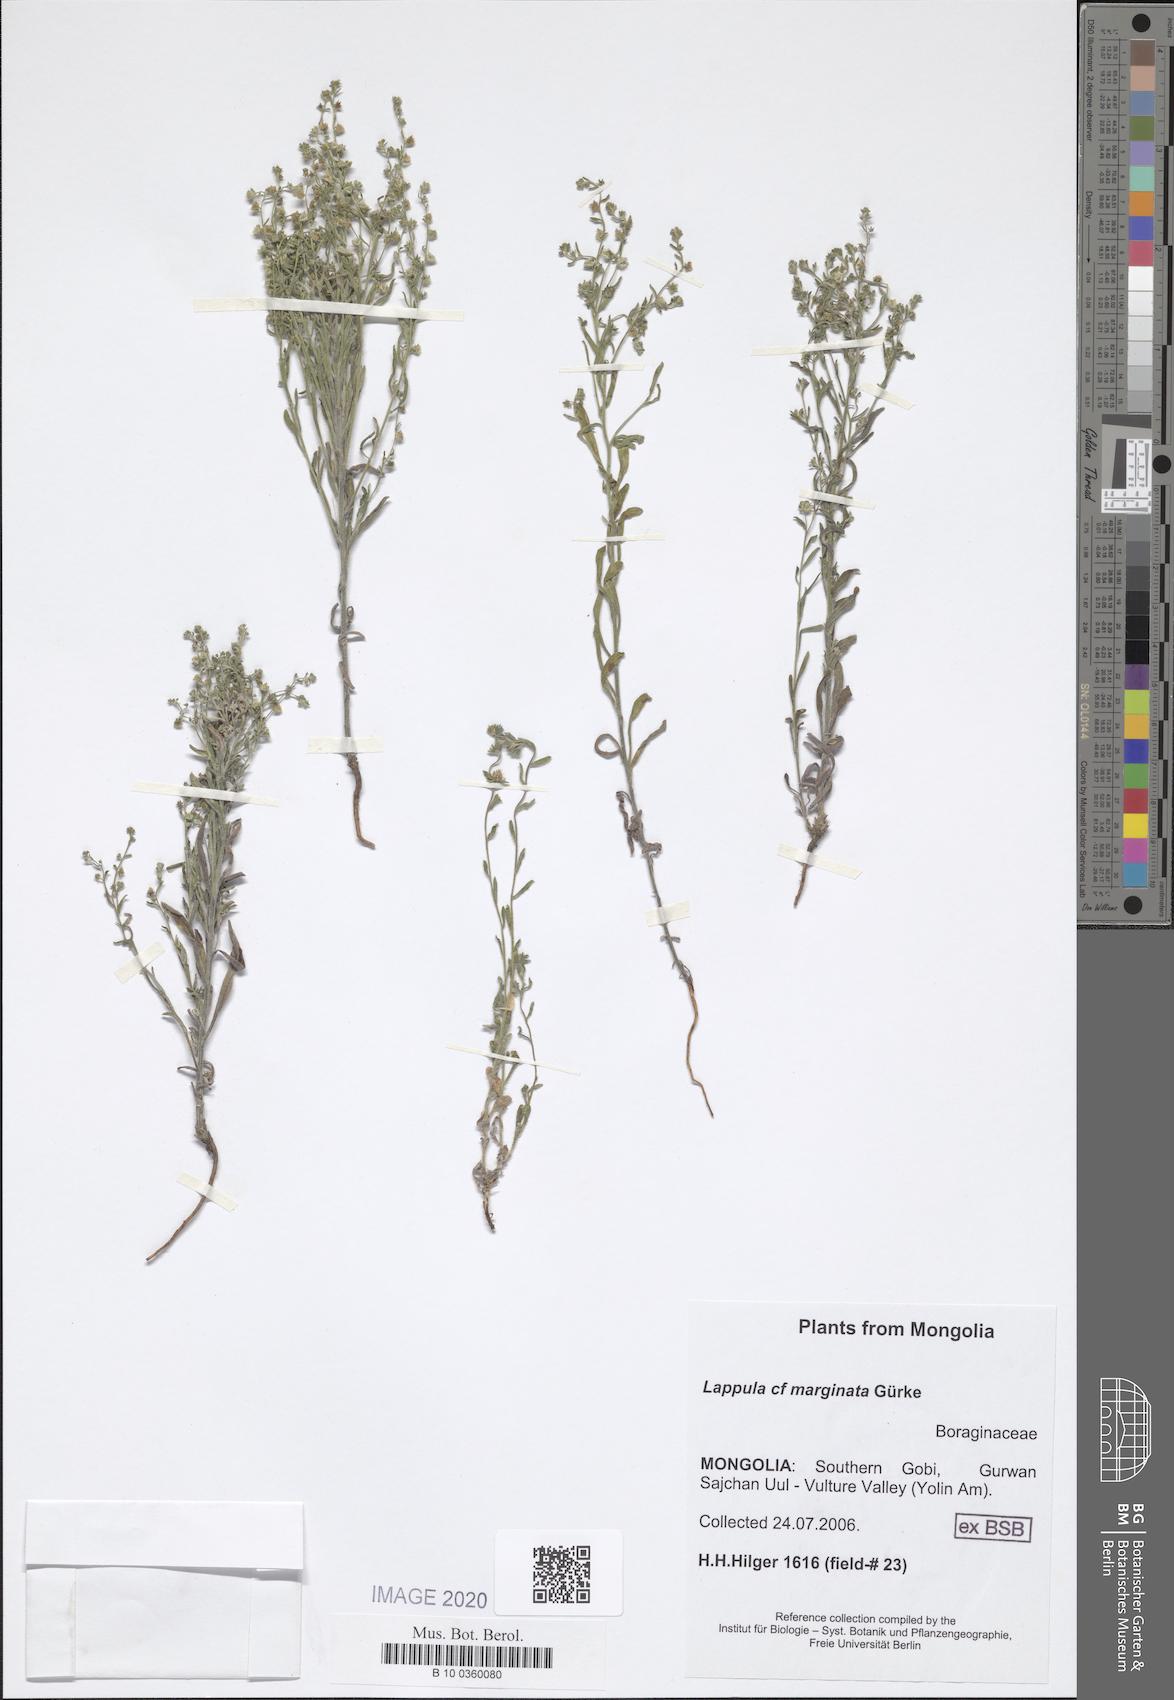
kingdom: Plantae
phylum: Tracheophyta
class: Magnoliopsida
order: Boraginales
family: Boraginaceae
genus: Lappula
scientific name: Lappula marginata
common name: Margined stickseed
